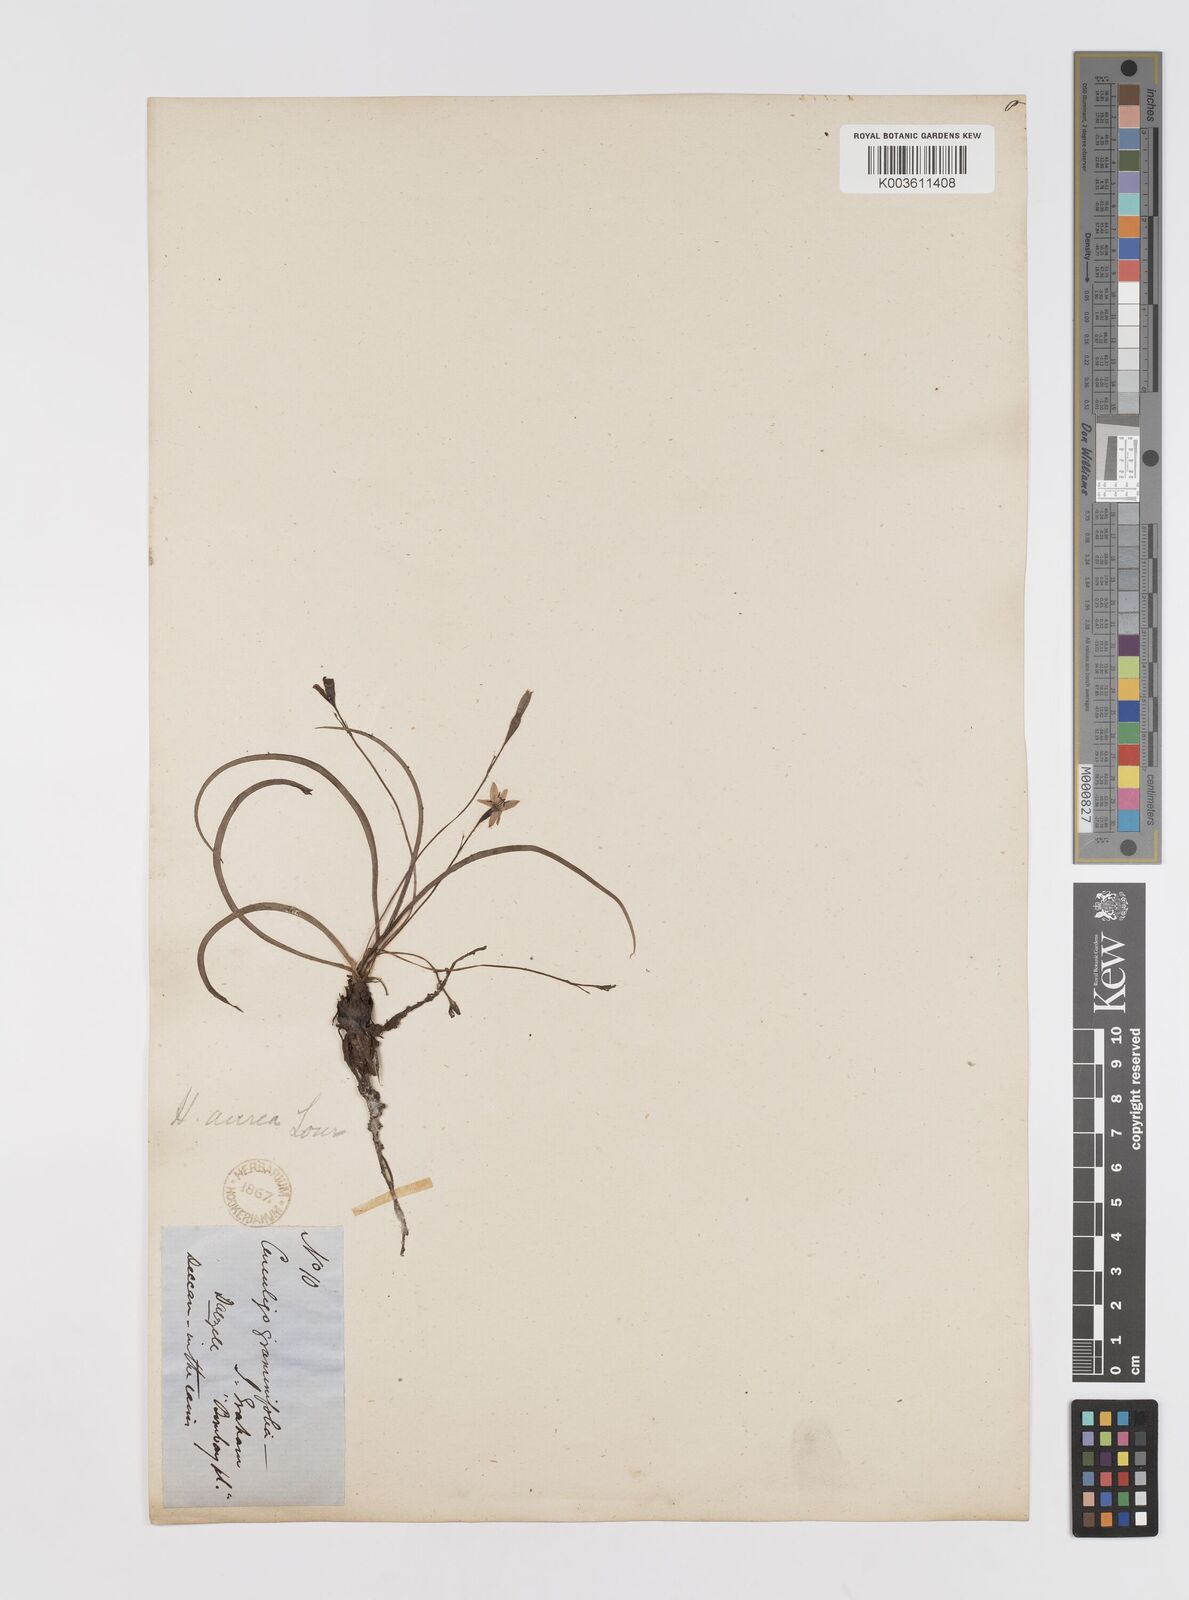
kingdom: Plantae
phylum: Tracheophyta
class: Liliopsida
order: Asparagales
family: Hypoxidaceae
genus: Hypoxis
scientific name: Hypoxis aurea
